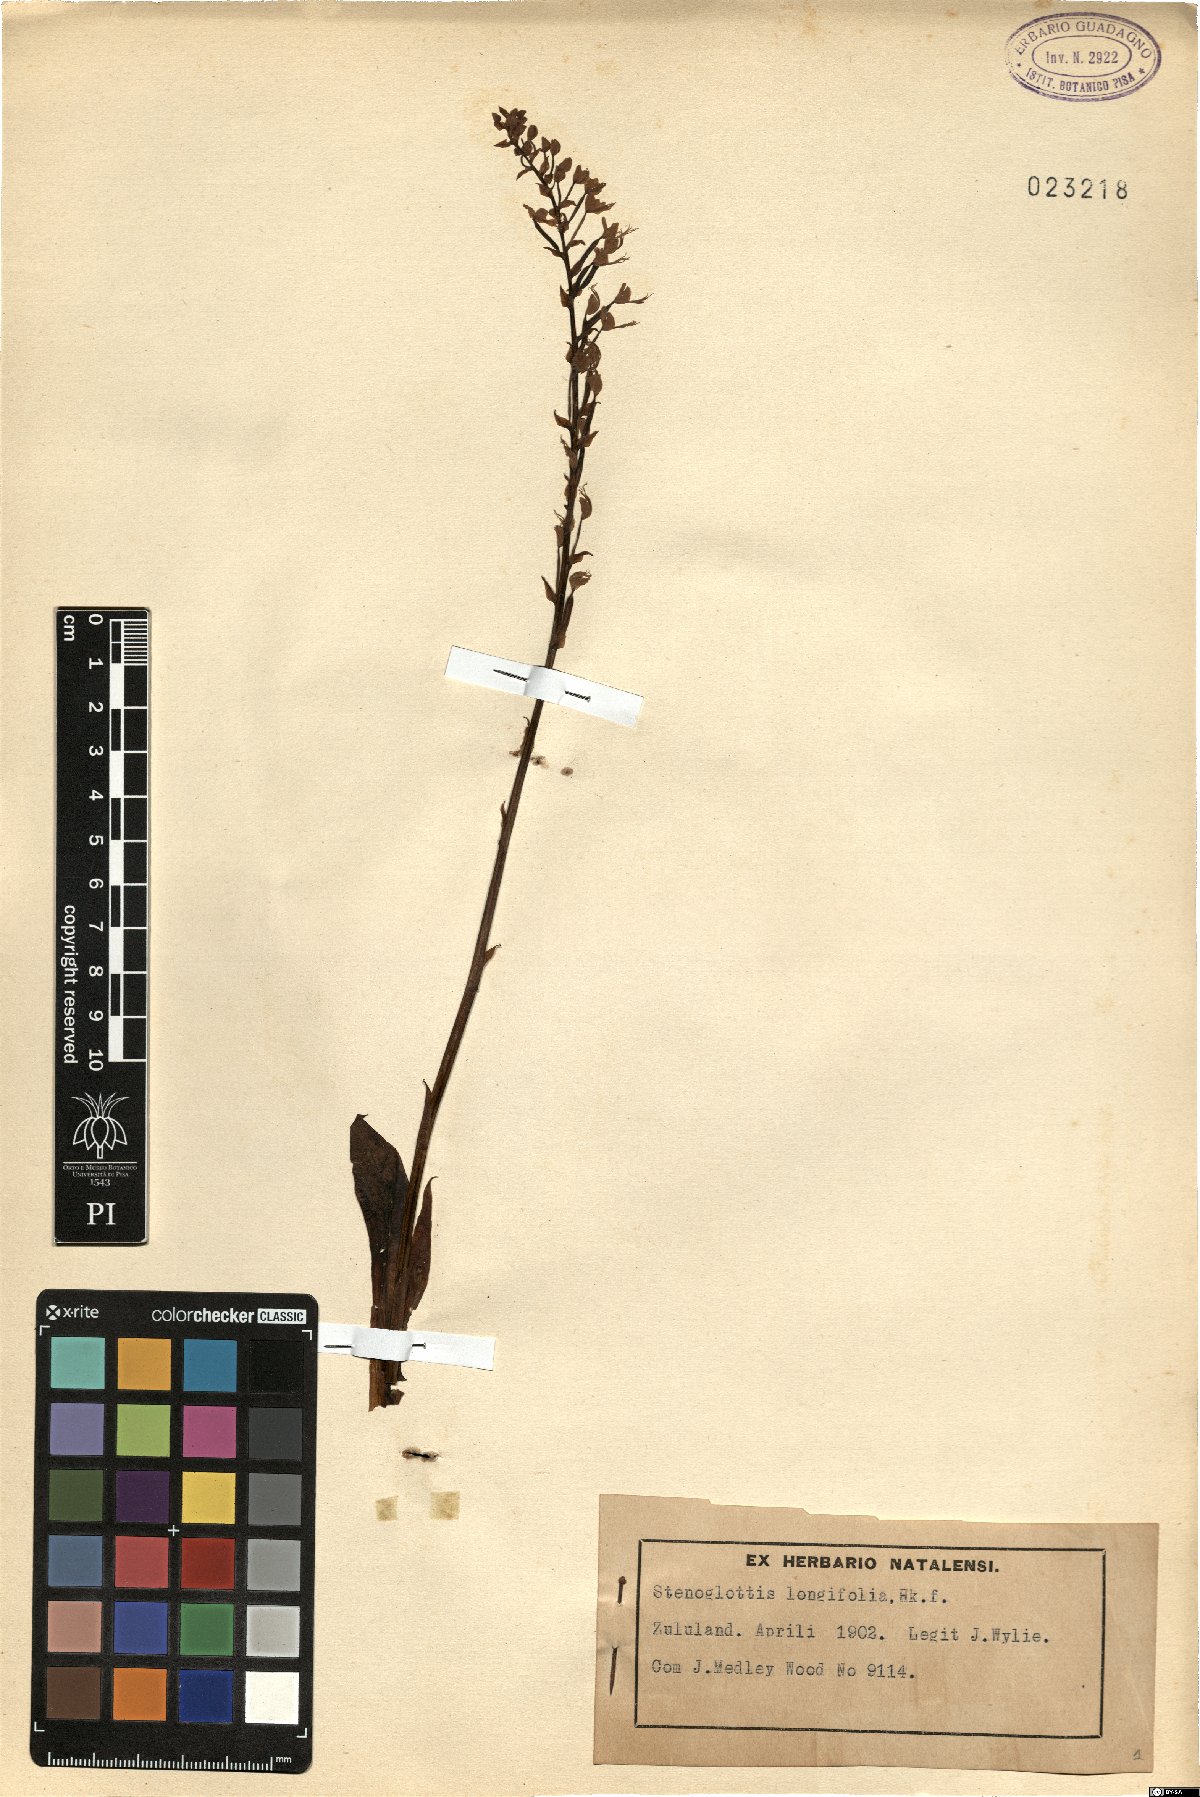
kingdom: Plantae
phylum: Tracheophyta
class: Liliopsida
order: Asparagales
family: Orchidaceae
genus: Stenoglottis
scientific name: Stenoglottis longifolia
